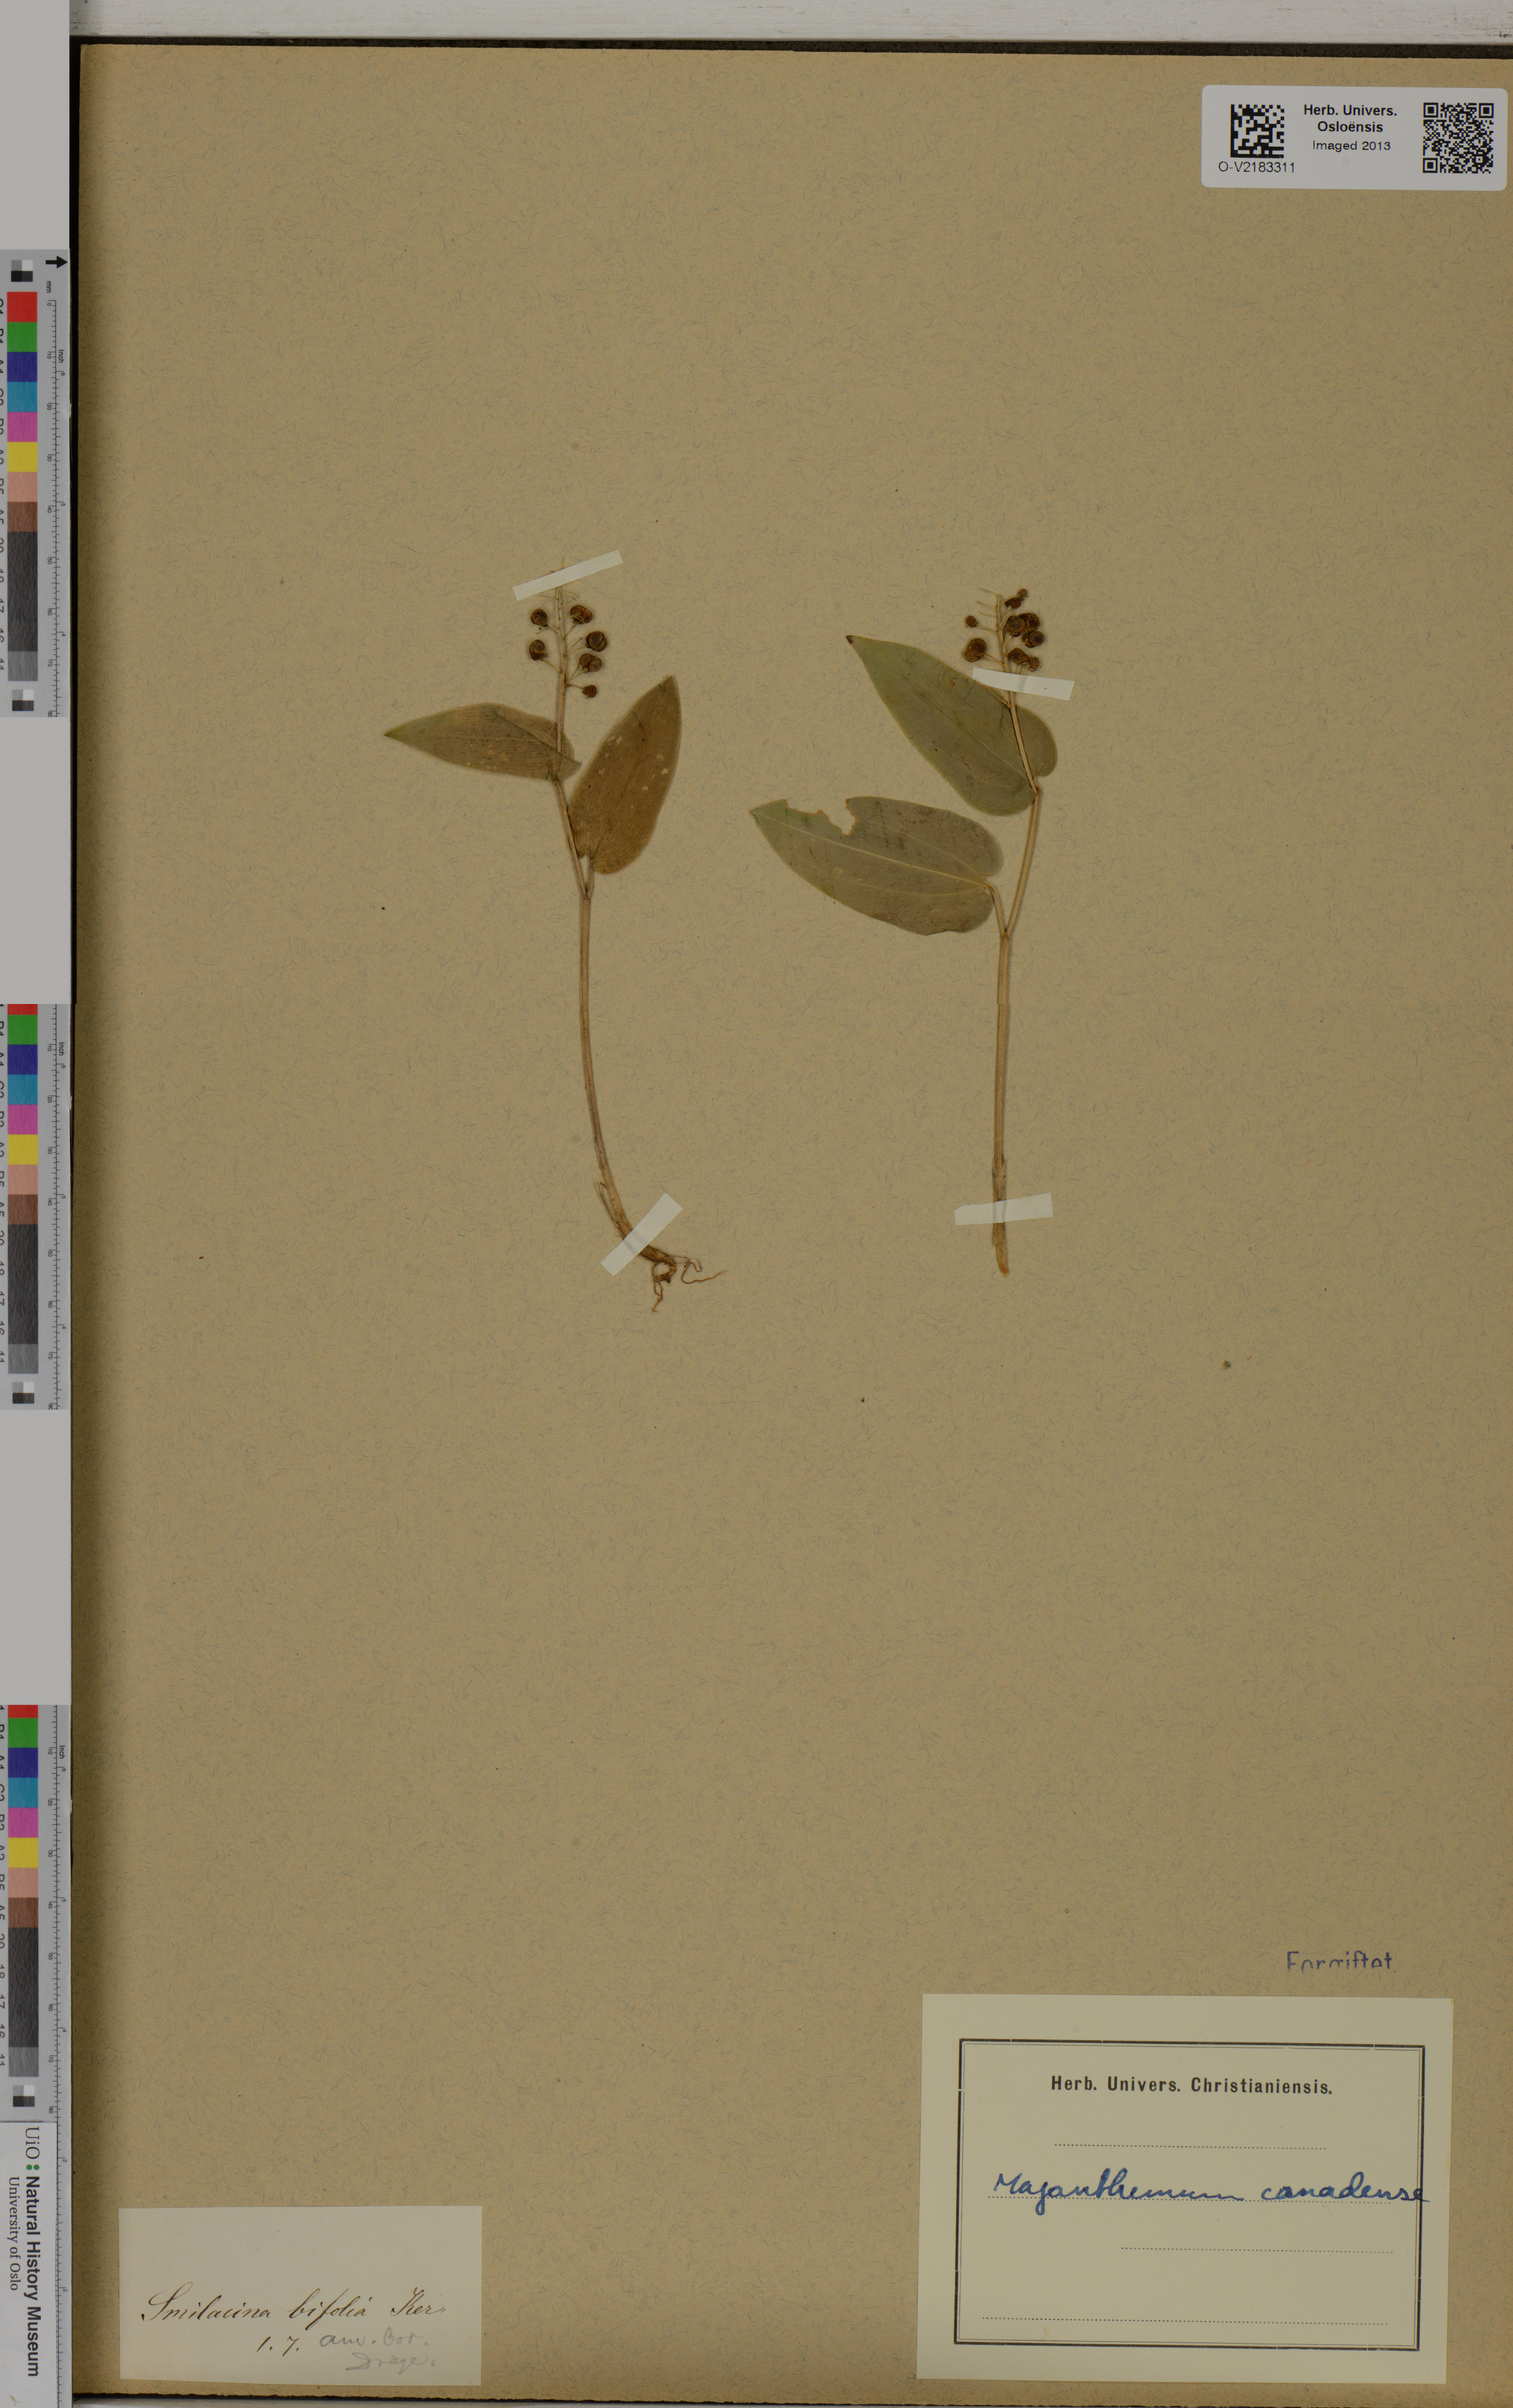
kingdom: Plantae
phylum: Tracheophyta
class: Liliopsida
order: Asparagales
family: Asparagaceae
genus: Maianthemum
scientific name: Maianthemum canadense
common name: False lily-of-the-valley
